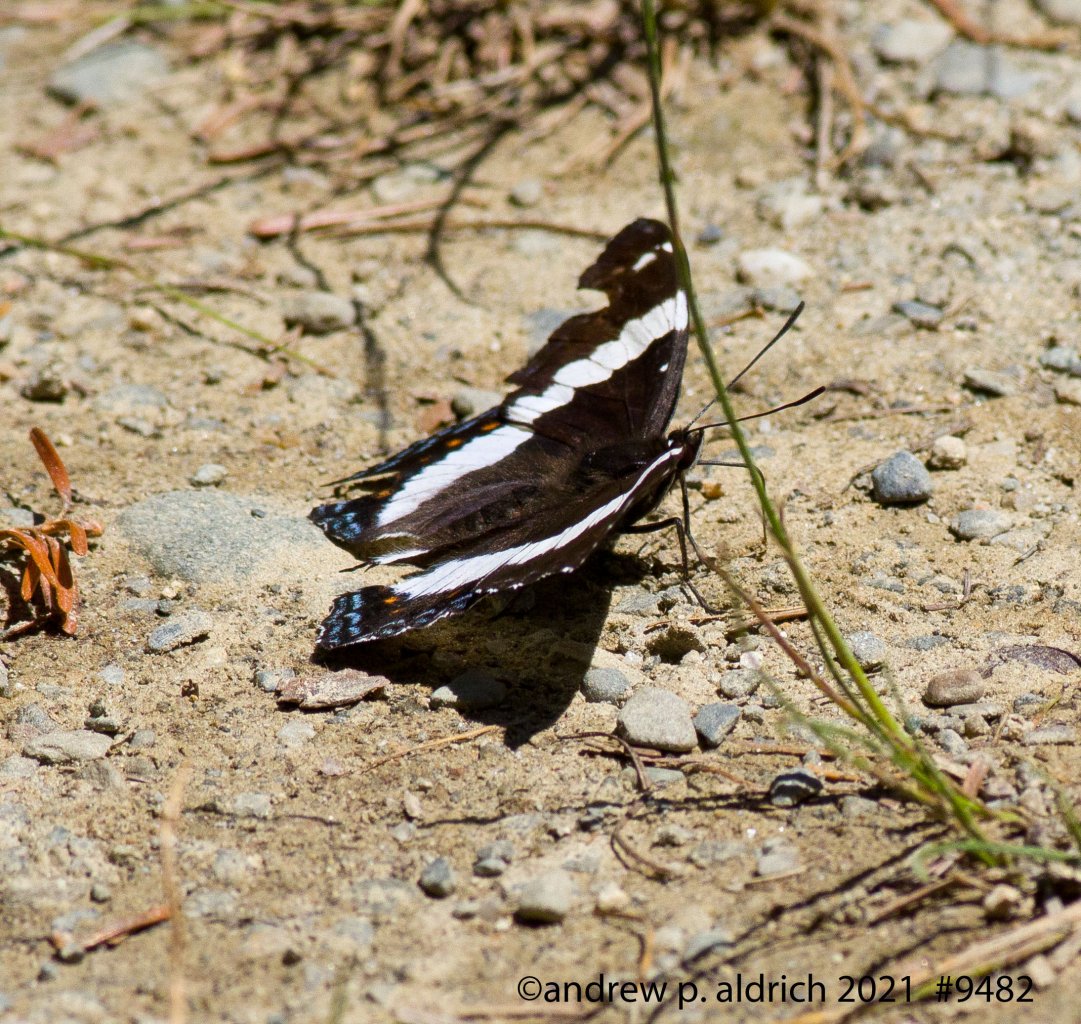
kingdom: Animalia
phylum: Arthropoda
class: Insecta
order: Lepidoptera
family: Nymphalidae
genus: Limenitis
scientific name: Limenitis arthemis
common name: Red-spotted Admiral
